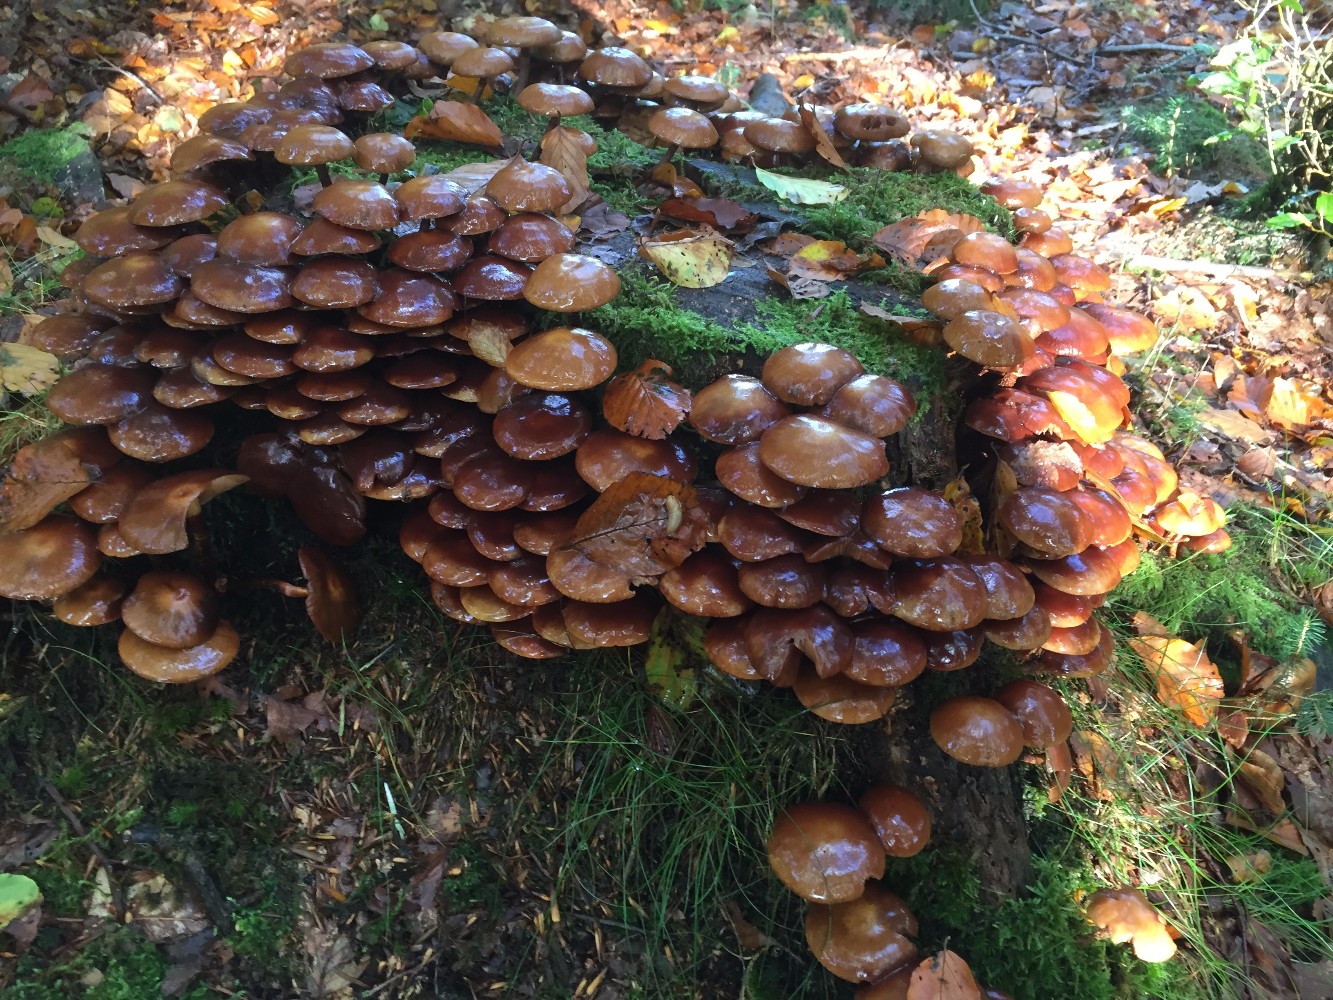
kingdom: Fungi
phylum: Basidiomycota
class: Agaricomycetes
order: Agaricales
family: Strophariaceae
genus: Kuehneromyces
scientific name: Kuehneromyces mutabilis
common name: foranderlig skælhat
